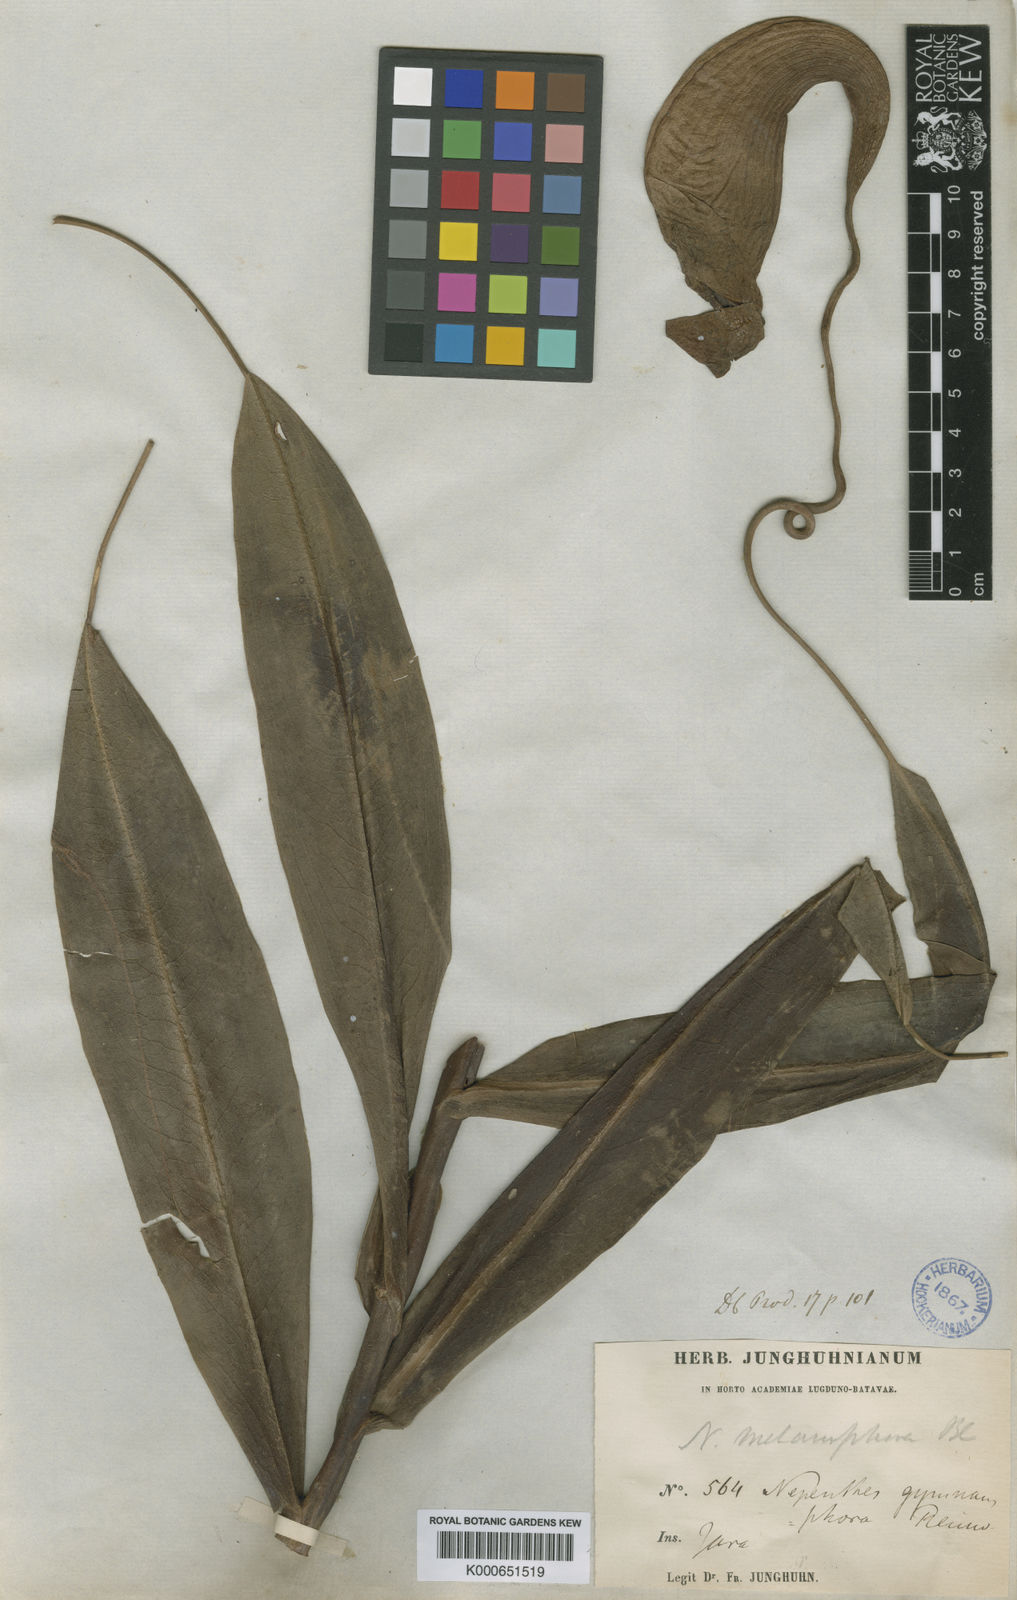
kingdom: Plantae
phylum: Tracheophyta
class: Magnoliopsida
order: Caryophyllales
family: Nepenthaceae
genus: Nepenthes
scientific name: Nepenthes gymnamphora
